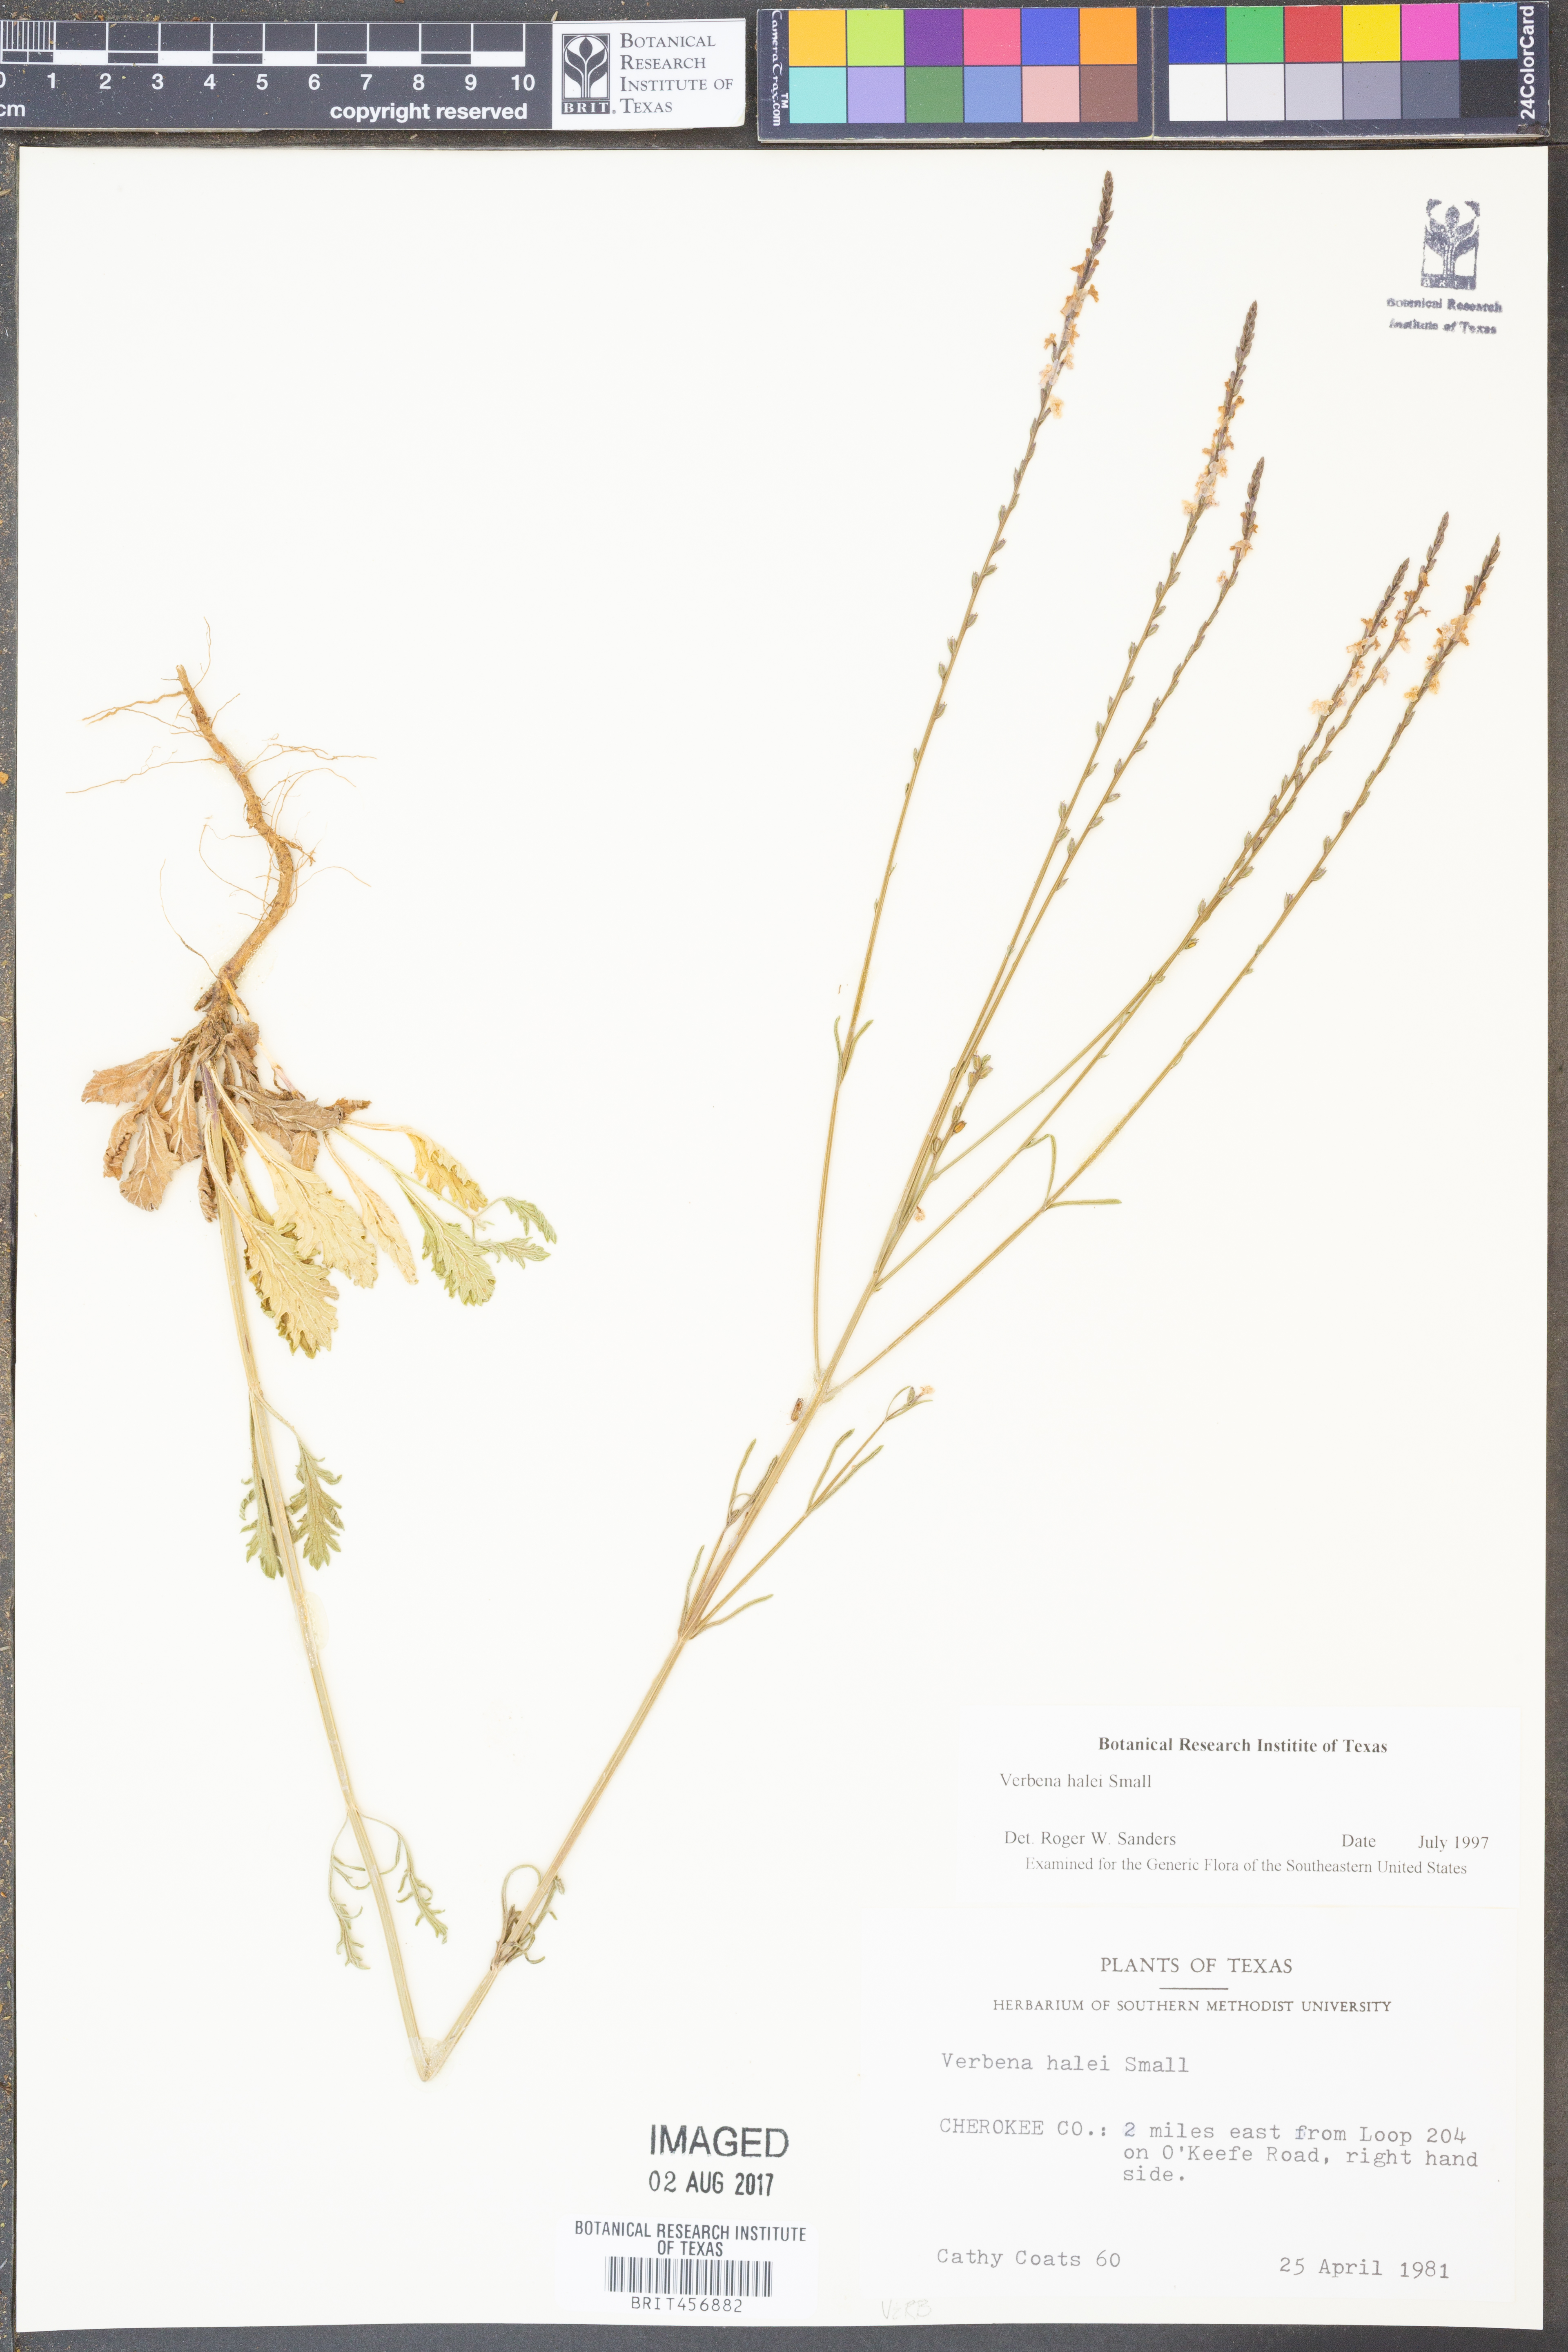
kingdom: Plantae
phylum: Tracheophyta
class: Magnoliopsida
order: Lamiales
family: Verbenaceae
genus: Verbena
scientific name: Verbena halei
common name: Texas vervain
